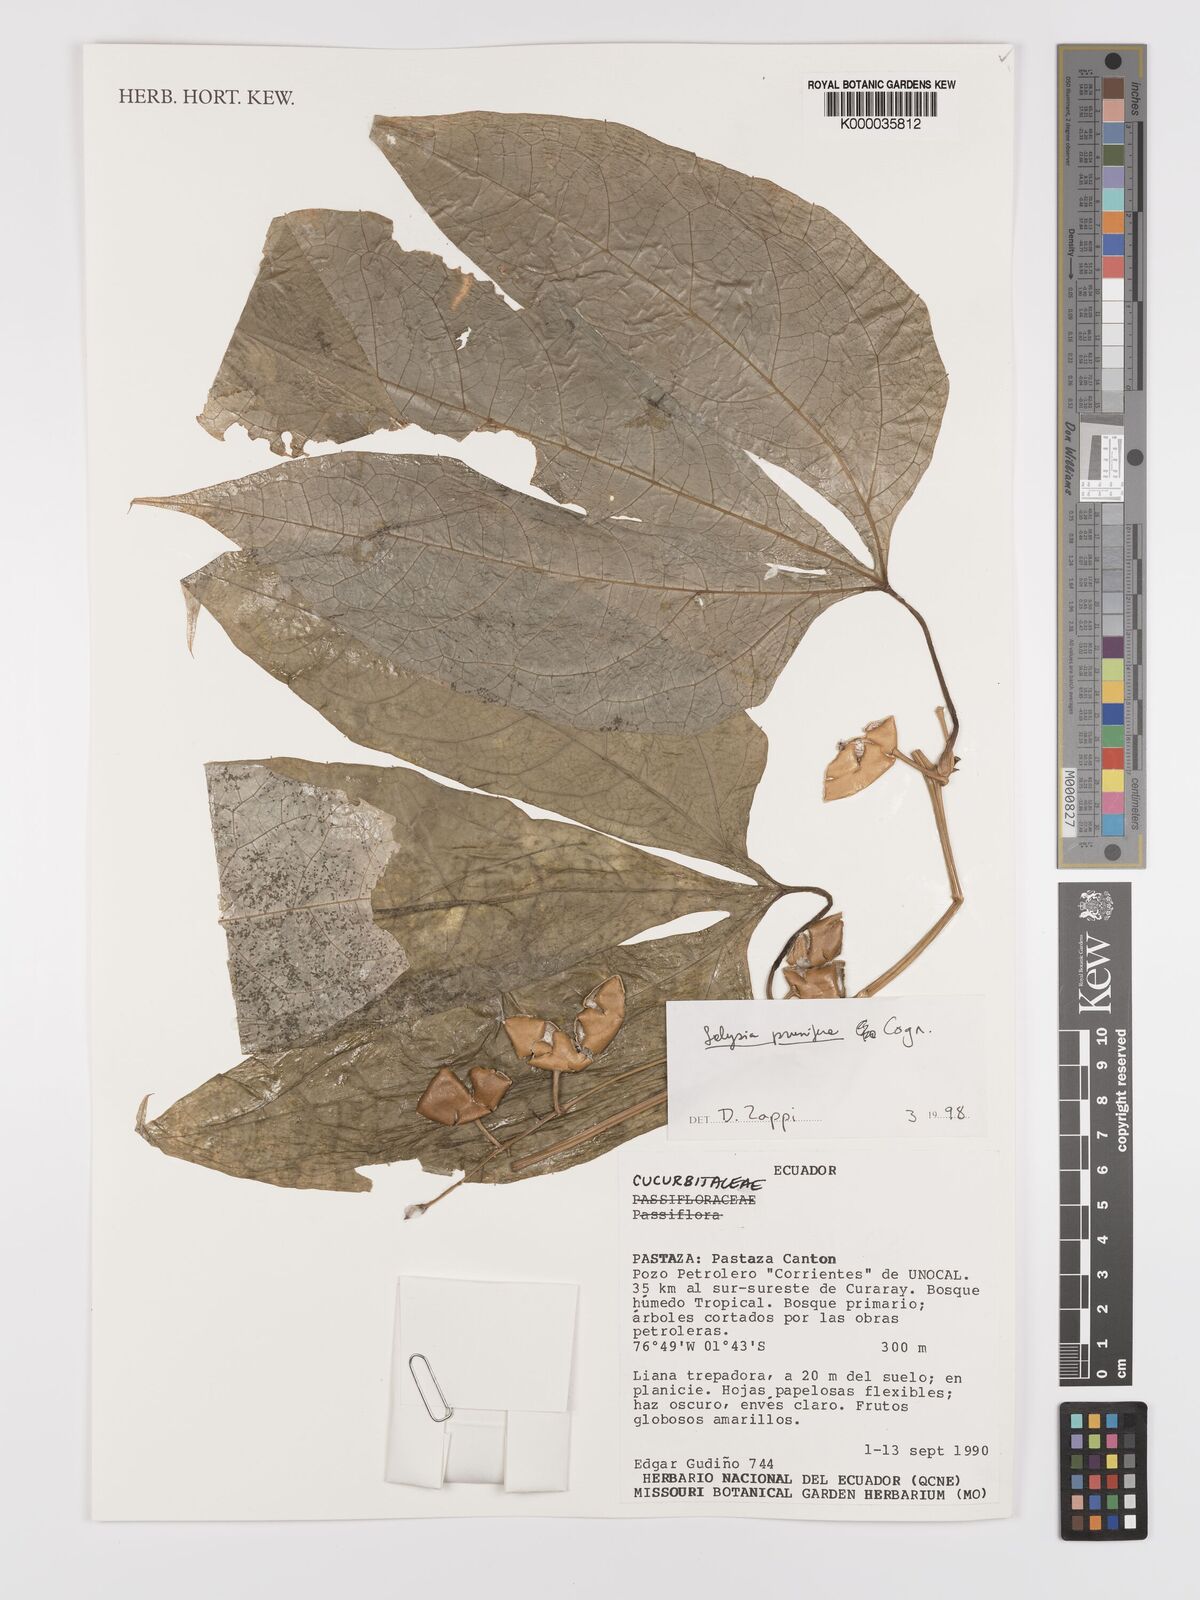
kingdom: Plantae
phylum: Tracheophyta
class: Magnoliopsida
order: Cucurbitales
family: Cucurbitaceae
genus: Cayaponia
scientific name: Cayaponia prunifera
